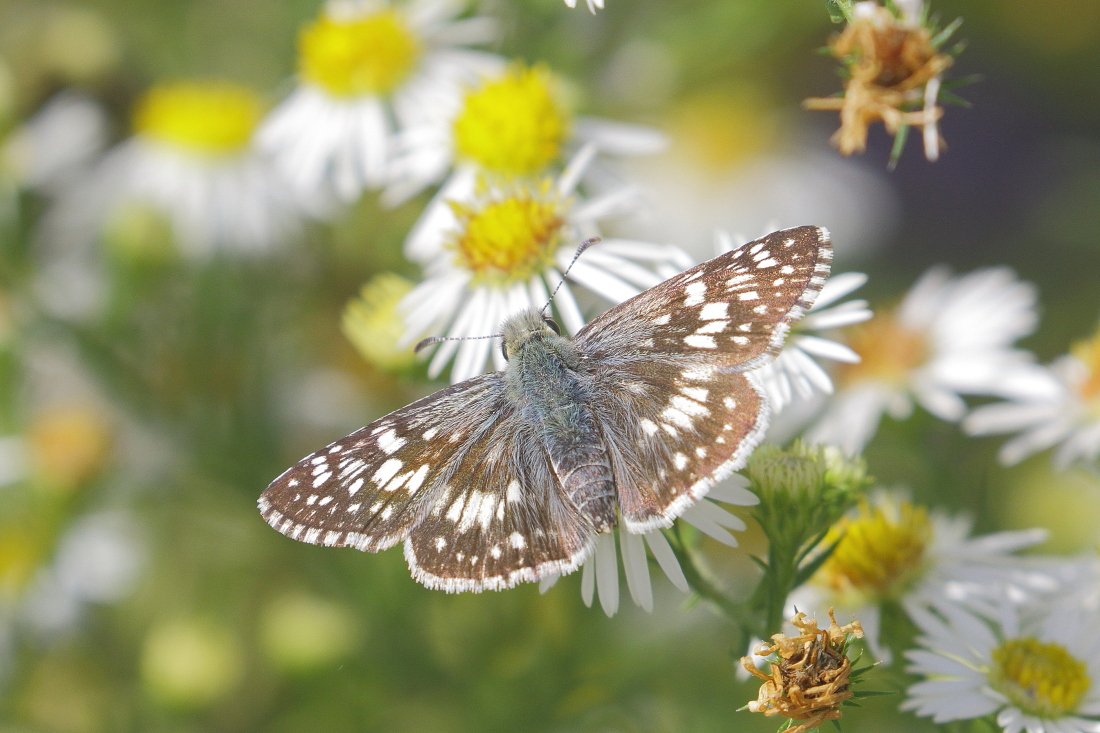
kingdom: Animalia
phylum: Arthropoda
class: Insecta
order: Lepidoptera
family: Hesperiidae
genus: Pyrgus
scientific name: Pyrgus communis
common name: Common Checkered-Skipper
